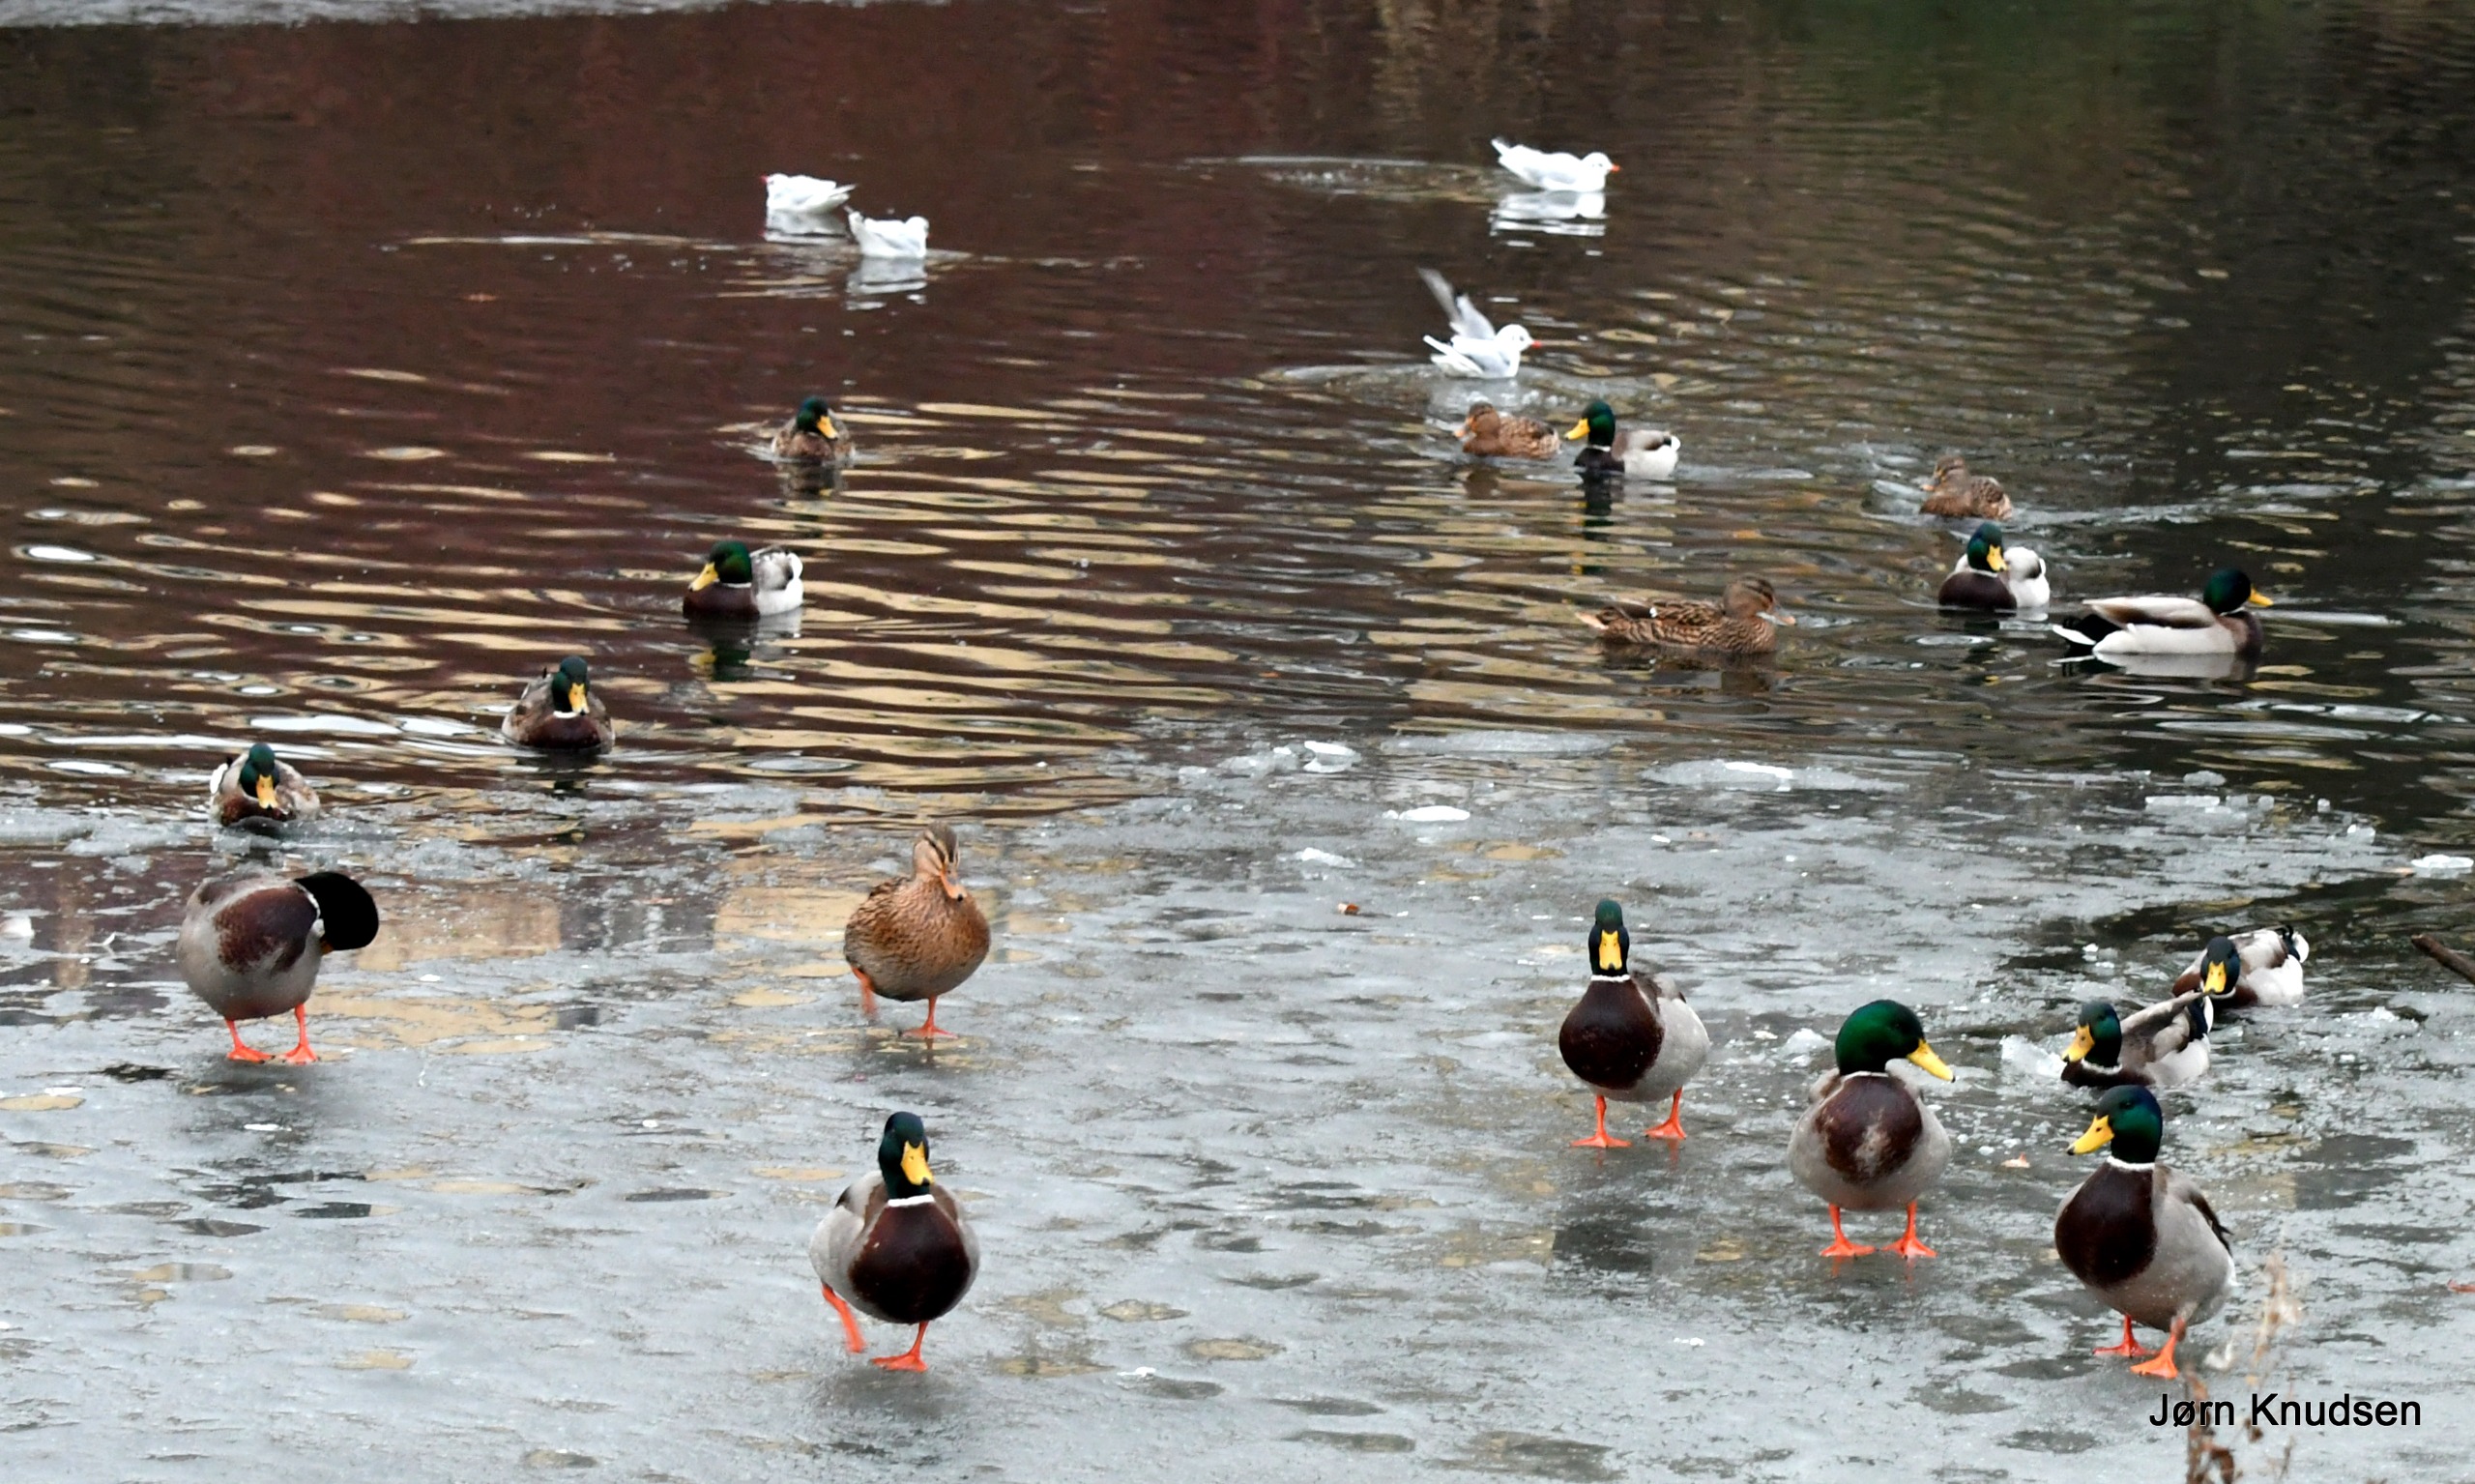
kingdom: Animalia
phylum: Chordata
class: Aves
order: Charadriiformes
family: Laridae
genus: Chroicocephalus
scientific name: Chroicocephalus ridibundus
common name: Hættemåge
